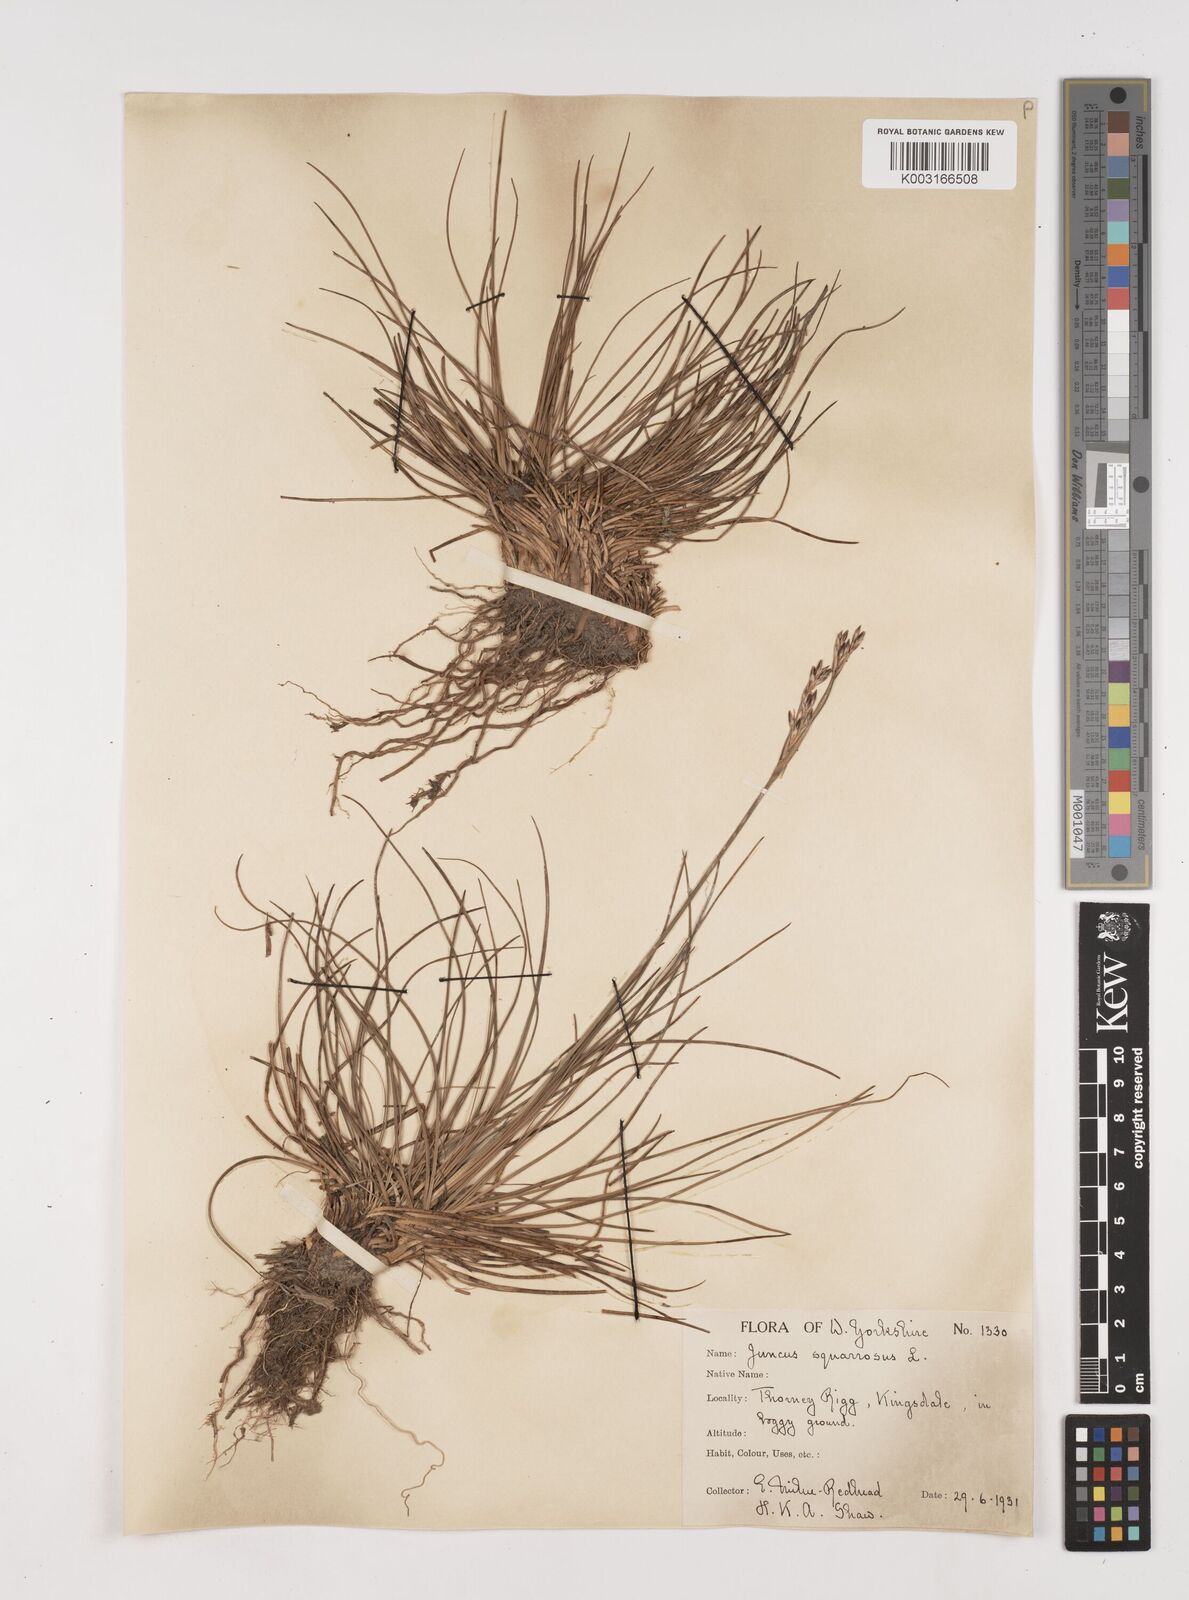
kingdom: Plantae
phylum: Tracheophyta
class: Liliopsida
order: Poales
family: Juncaceae
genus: Juncus
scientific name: Juncus squarrosus
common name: Heath rush
